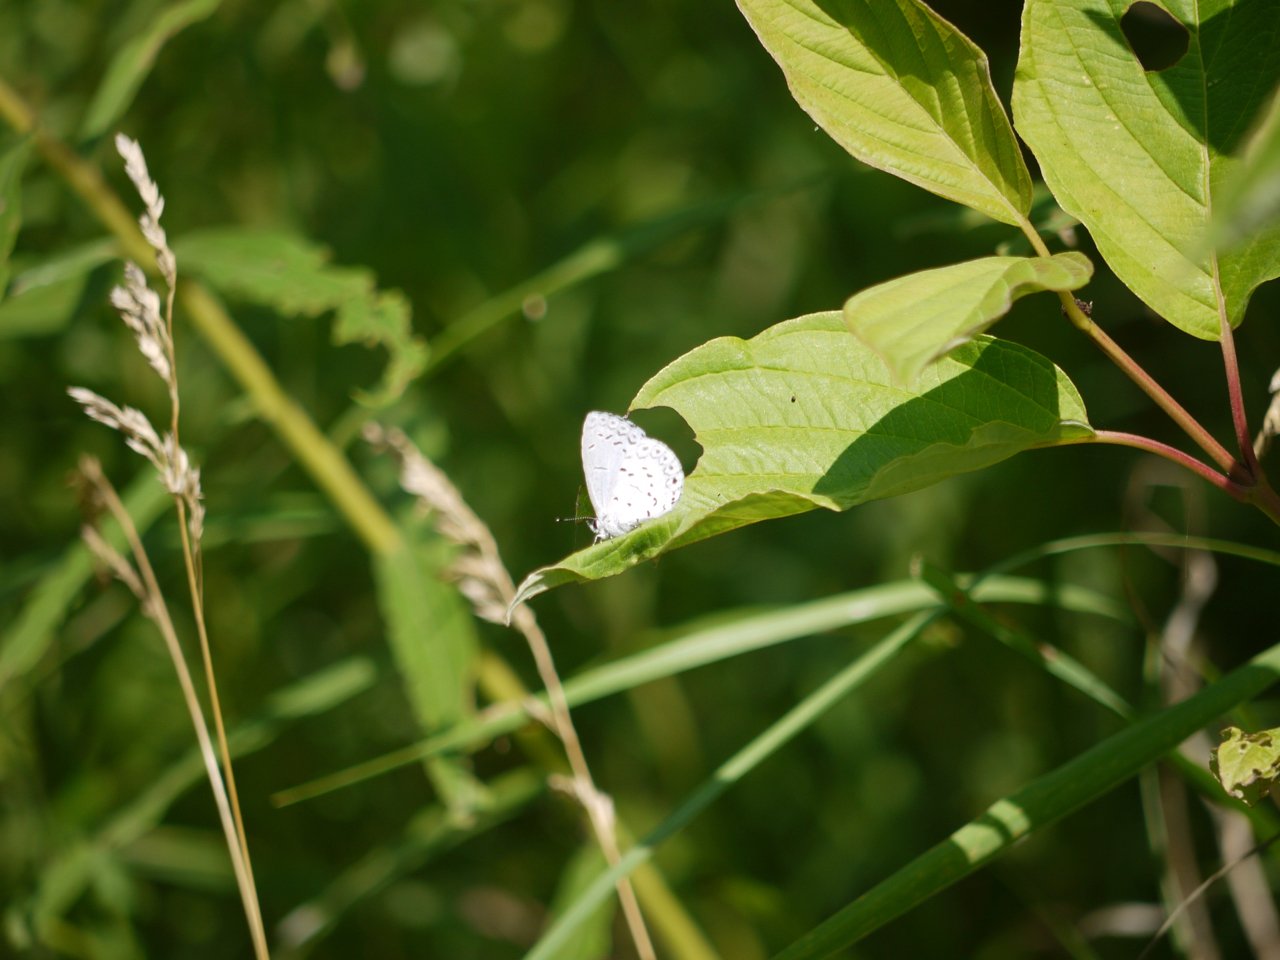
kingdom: Animalia
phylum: Arthropoda
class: Insecta
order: Lepidoptera
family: Lycaenidae
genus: Celastrina
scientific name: Celastrina
